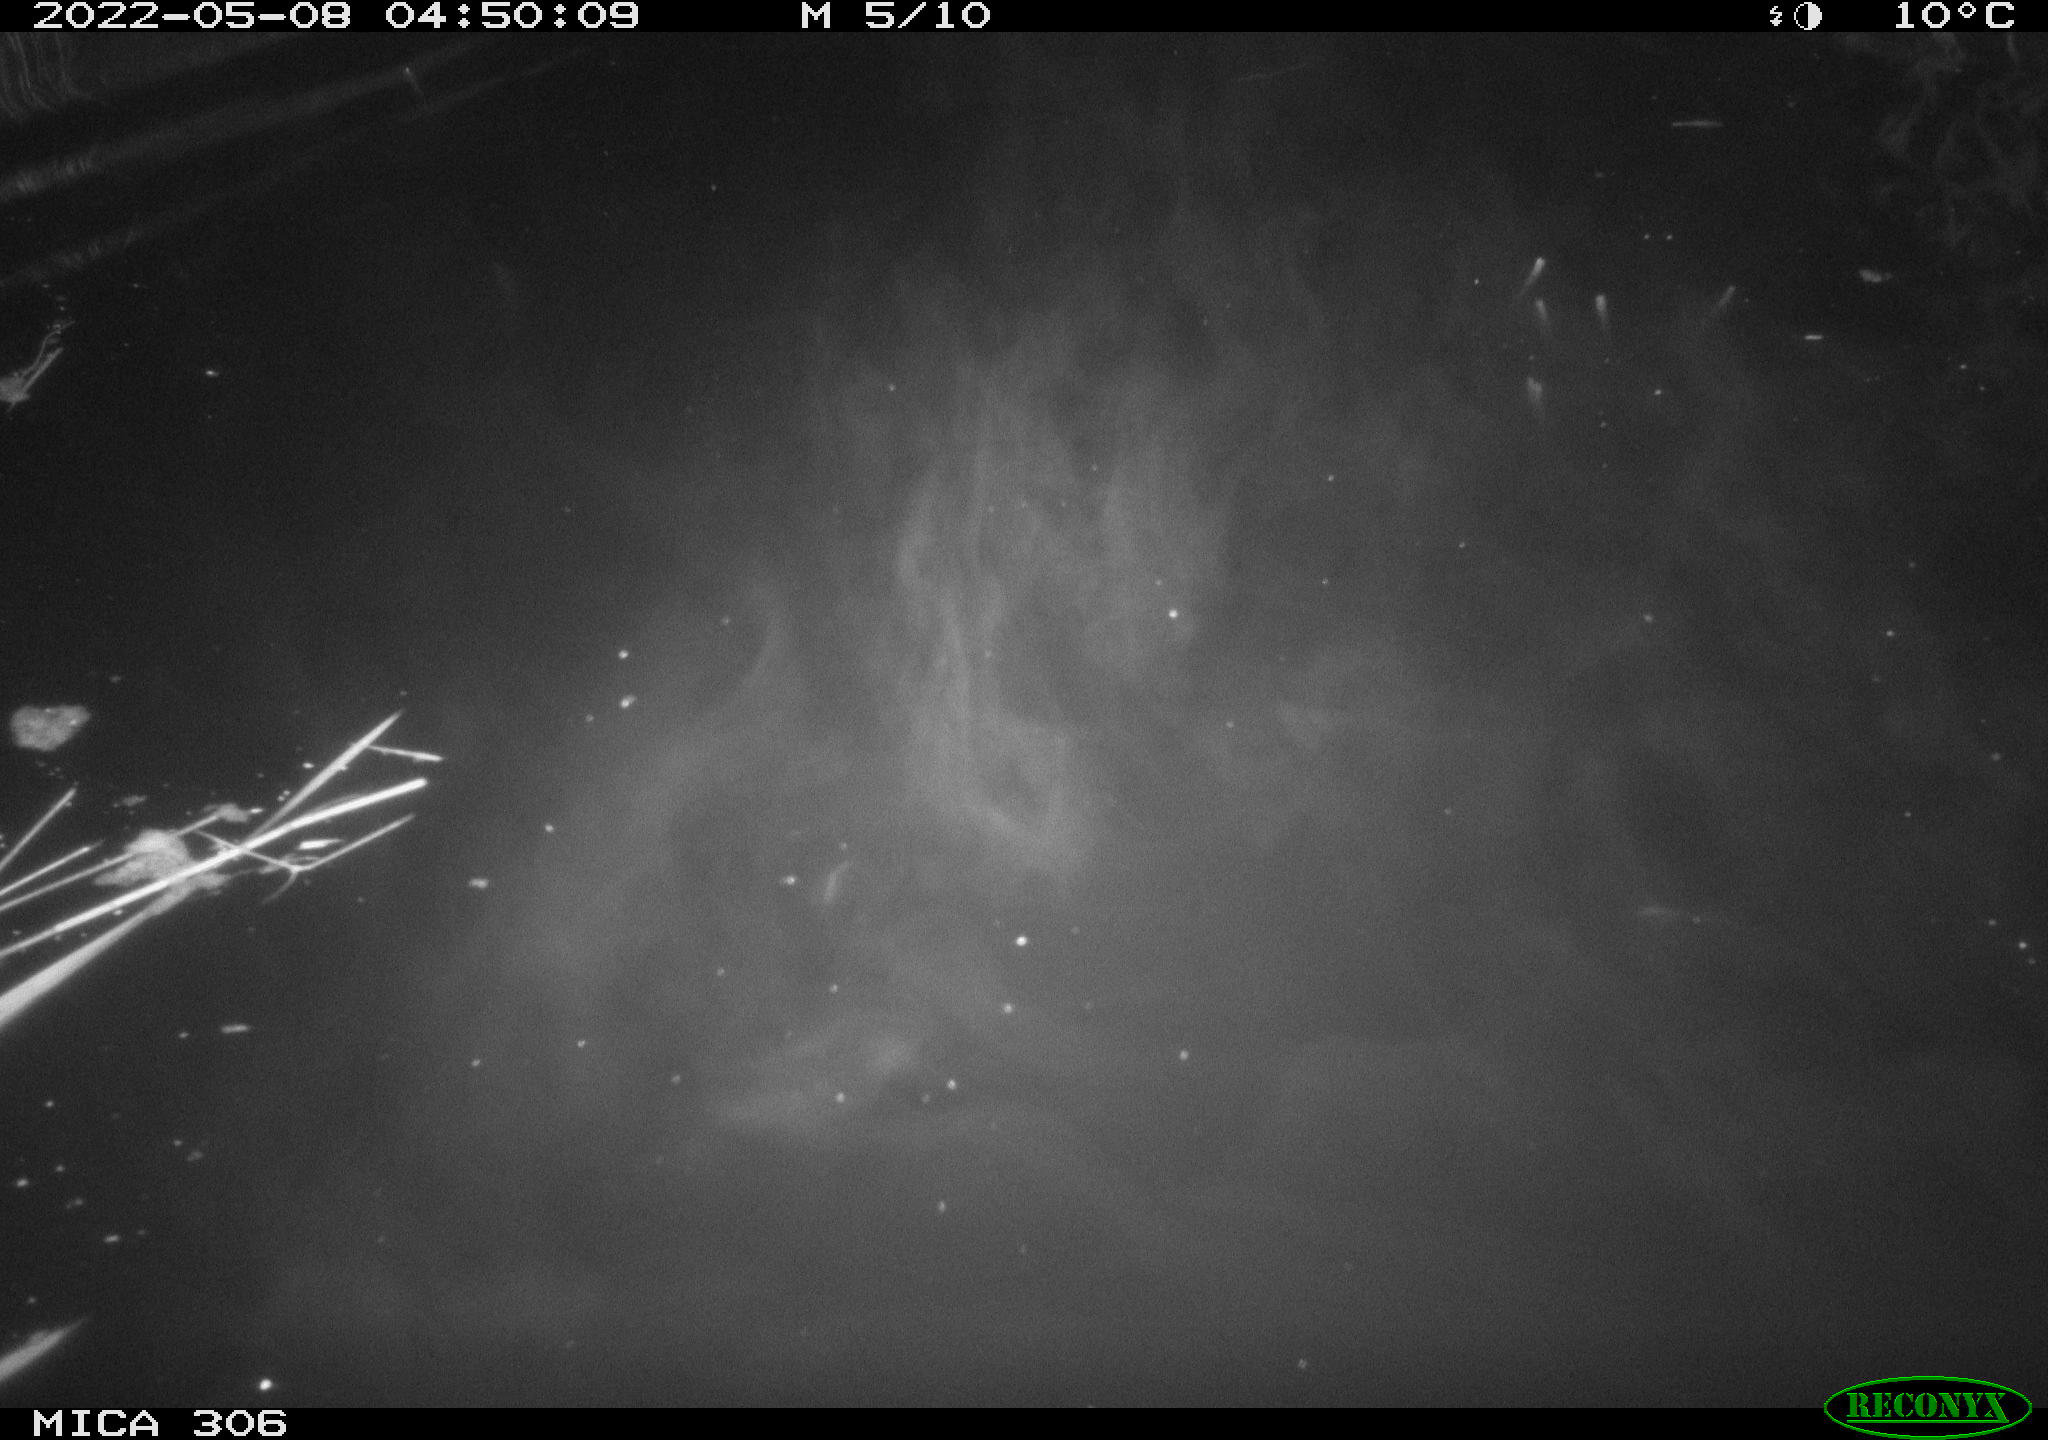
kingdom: Animalia
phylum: Chordata
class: Mammalia
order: Rodentia
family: Cricetidae
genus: Ondatra
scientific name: Ondatra zibethicus
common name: Muskrat
